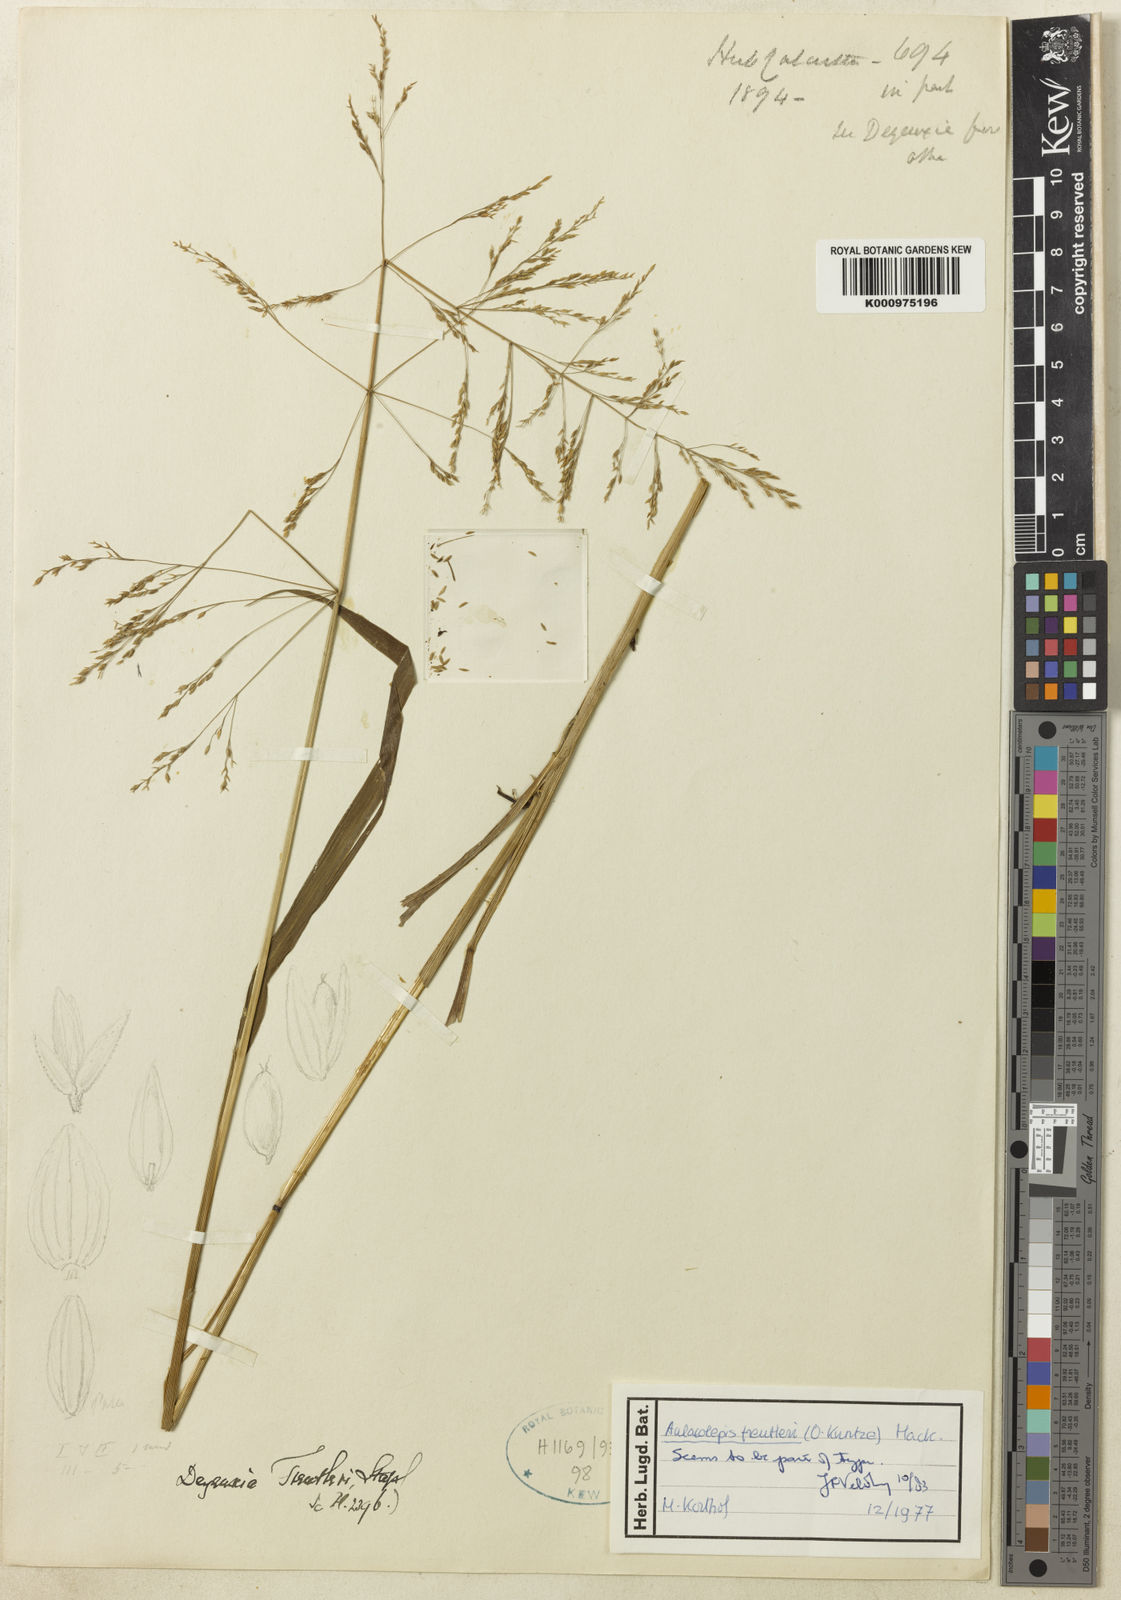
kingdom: Plantae
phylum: Tracheophyta
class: Liliopsida
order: Poales
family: Poaceae
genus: Aniselytron
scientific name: Aniselytron
